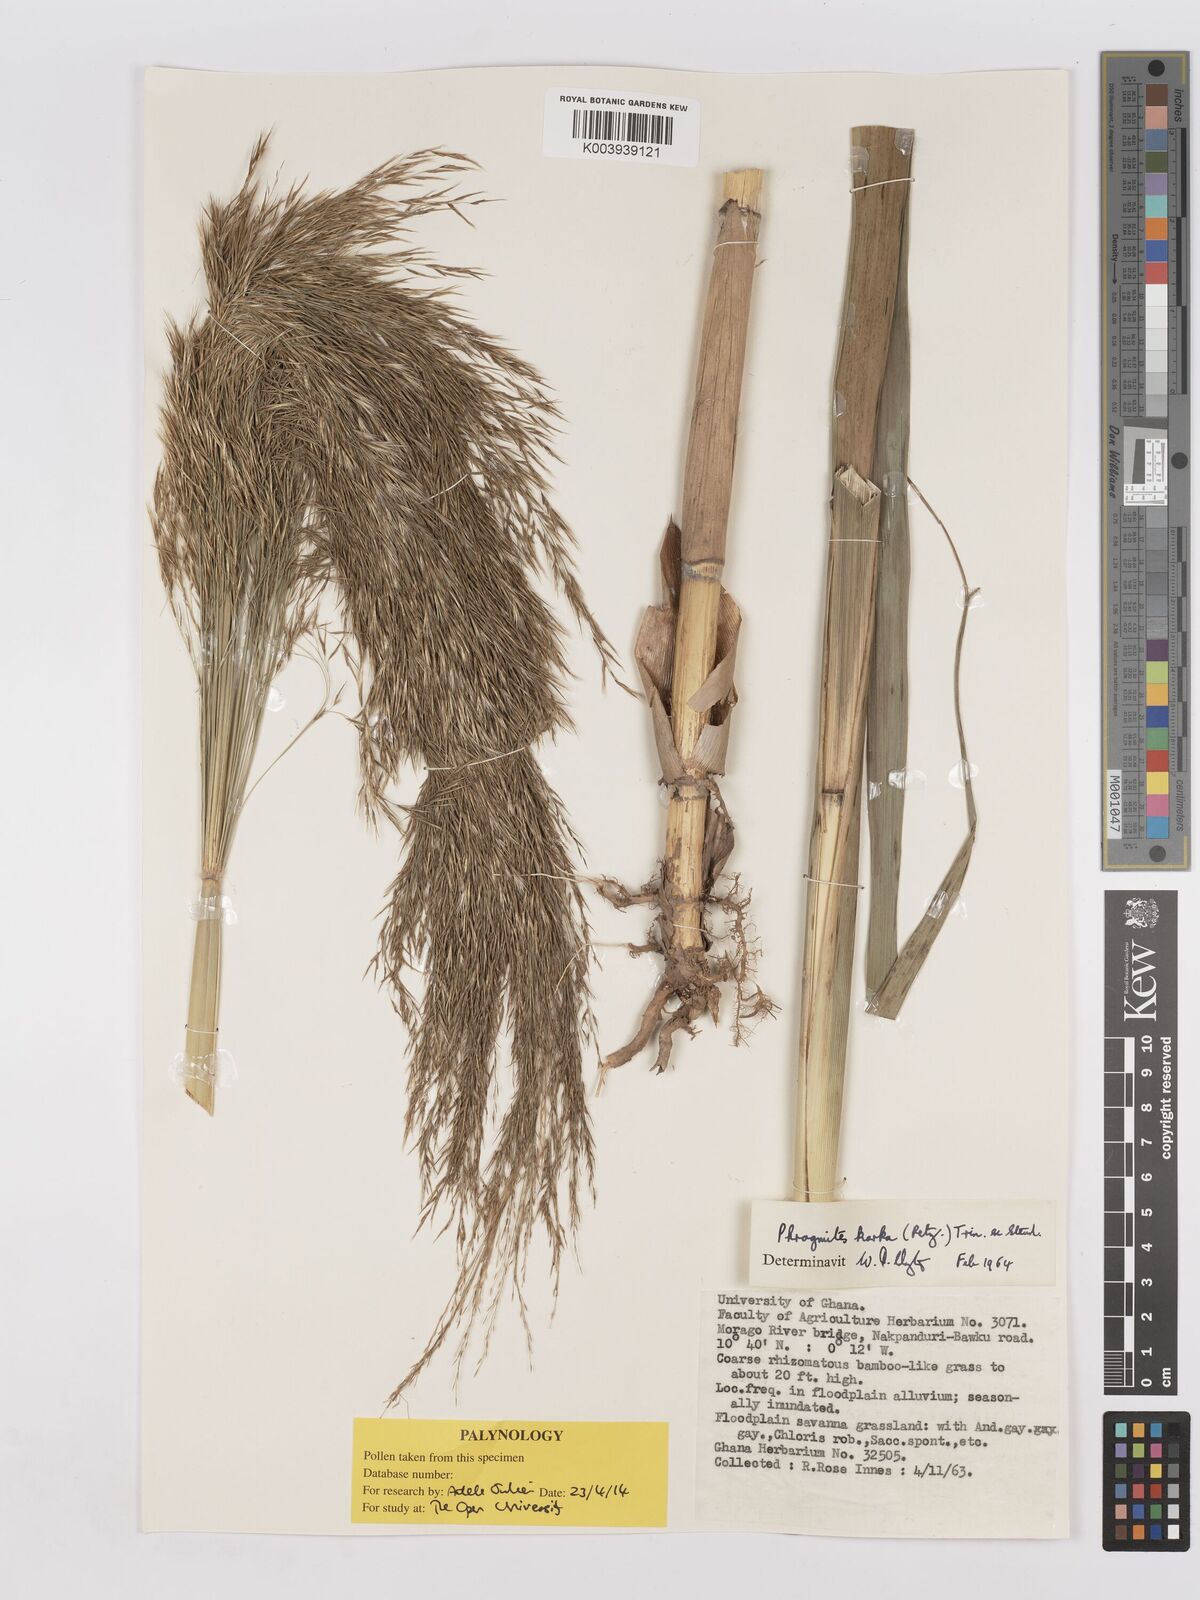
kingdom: Plantae
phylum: Tracheophyta
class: Liliopsida
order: Poales
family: Poaceae
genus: Phragmites
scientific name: Phragmites karka
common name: Tropical reed
